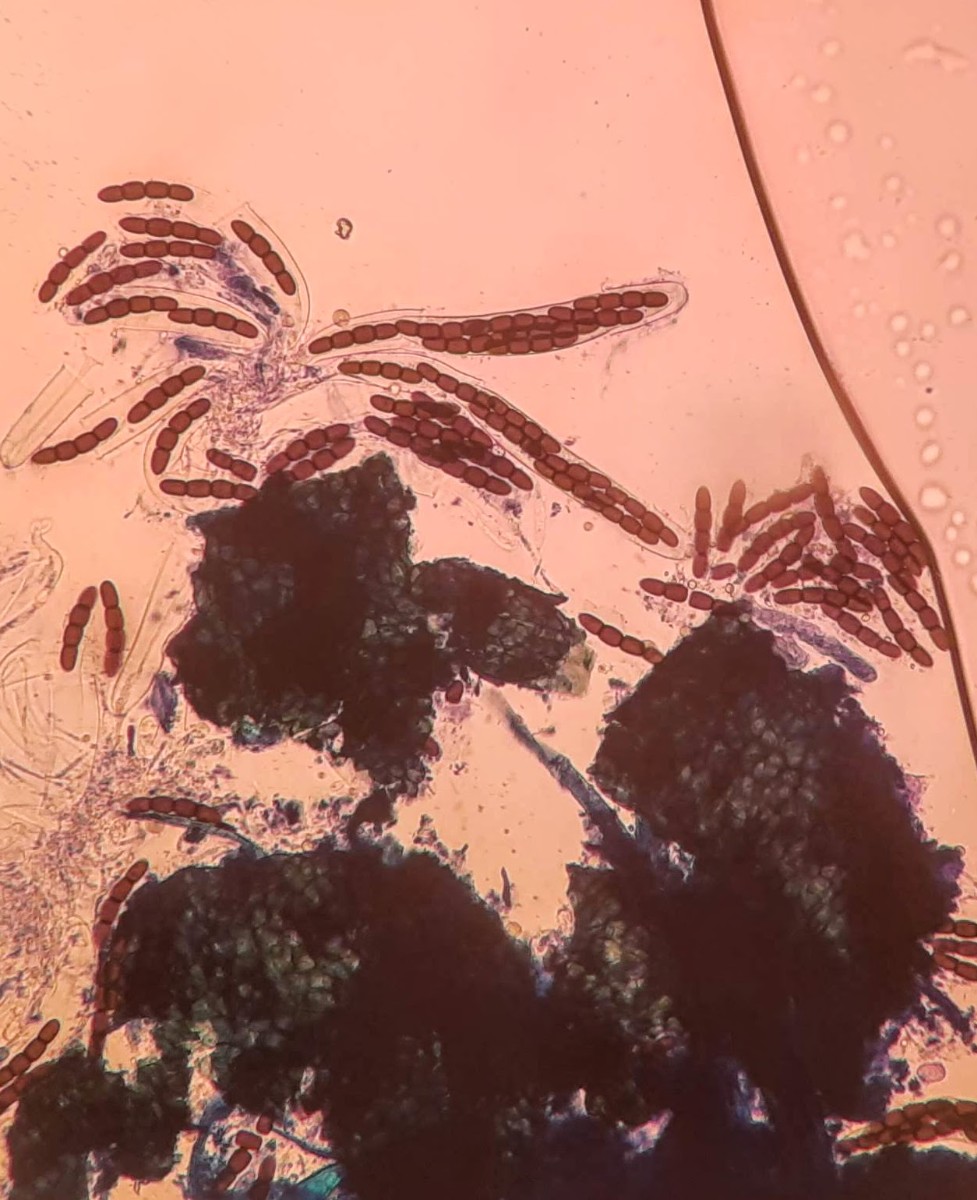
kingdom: Fungi
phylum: Ascomycota
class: Dothideomycetes
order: Pleosporales
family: Sporormiaceae
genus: Sporormiella
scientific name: Sporormiella australis
